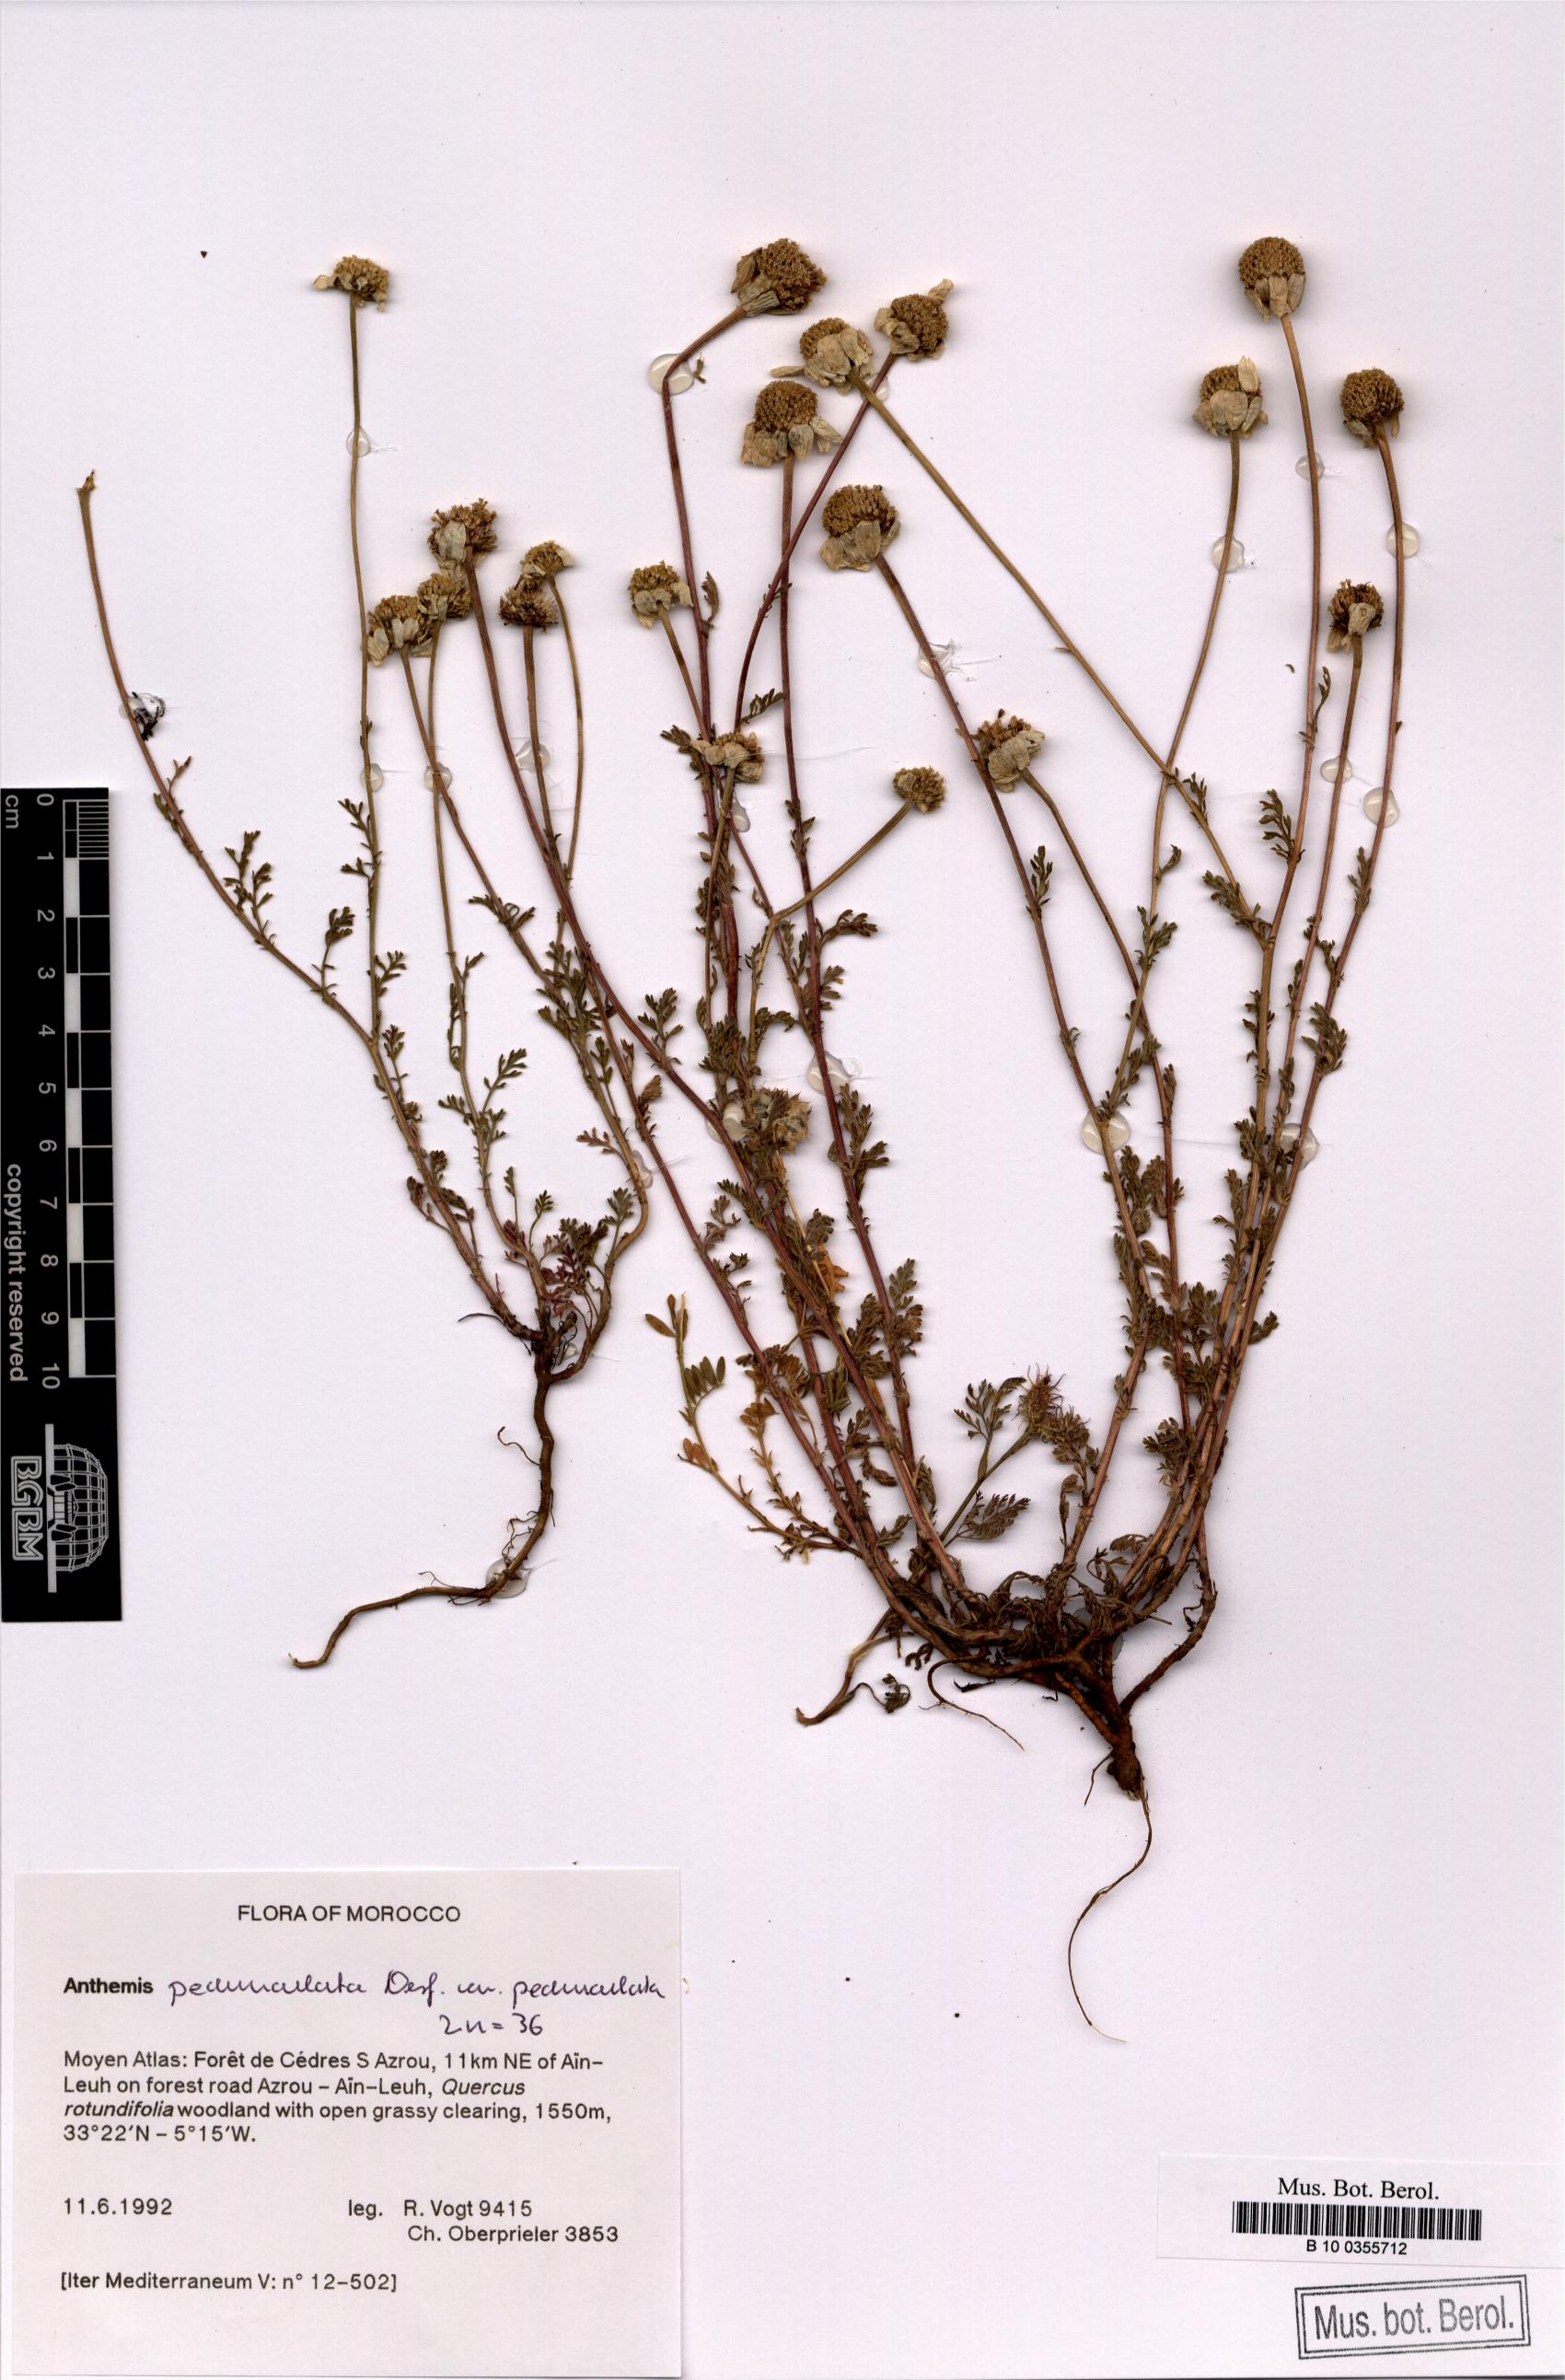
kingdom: Plantae
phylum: Tracheophyta
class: Magnoliopsida
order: Asterales
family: Asteraceae
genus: Anthemis
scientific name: Anthemis pedunculata
